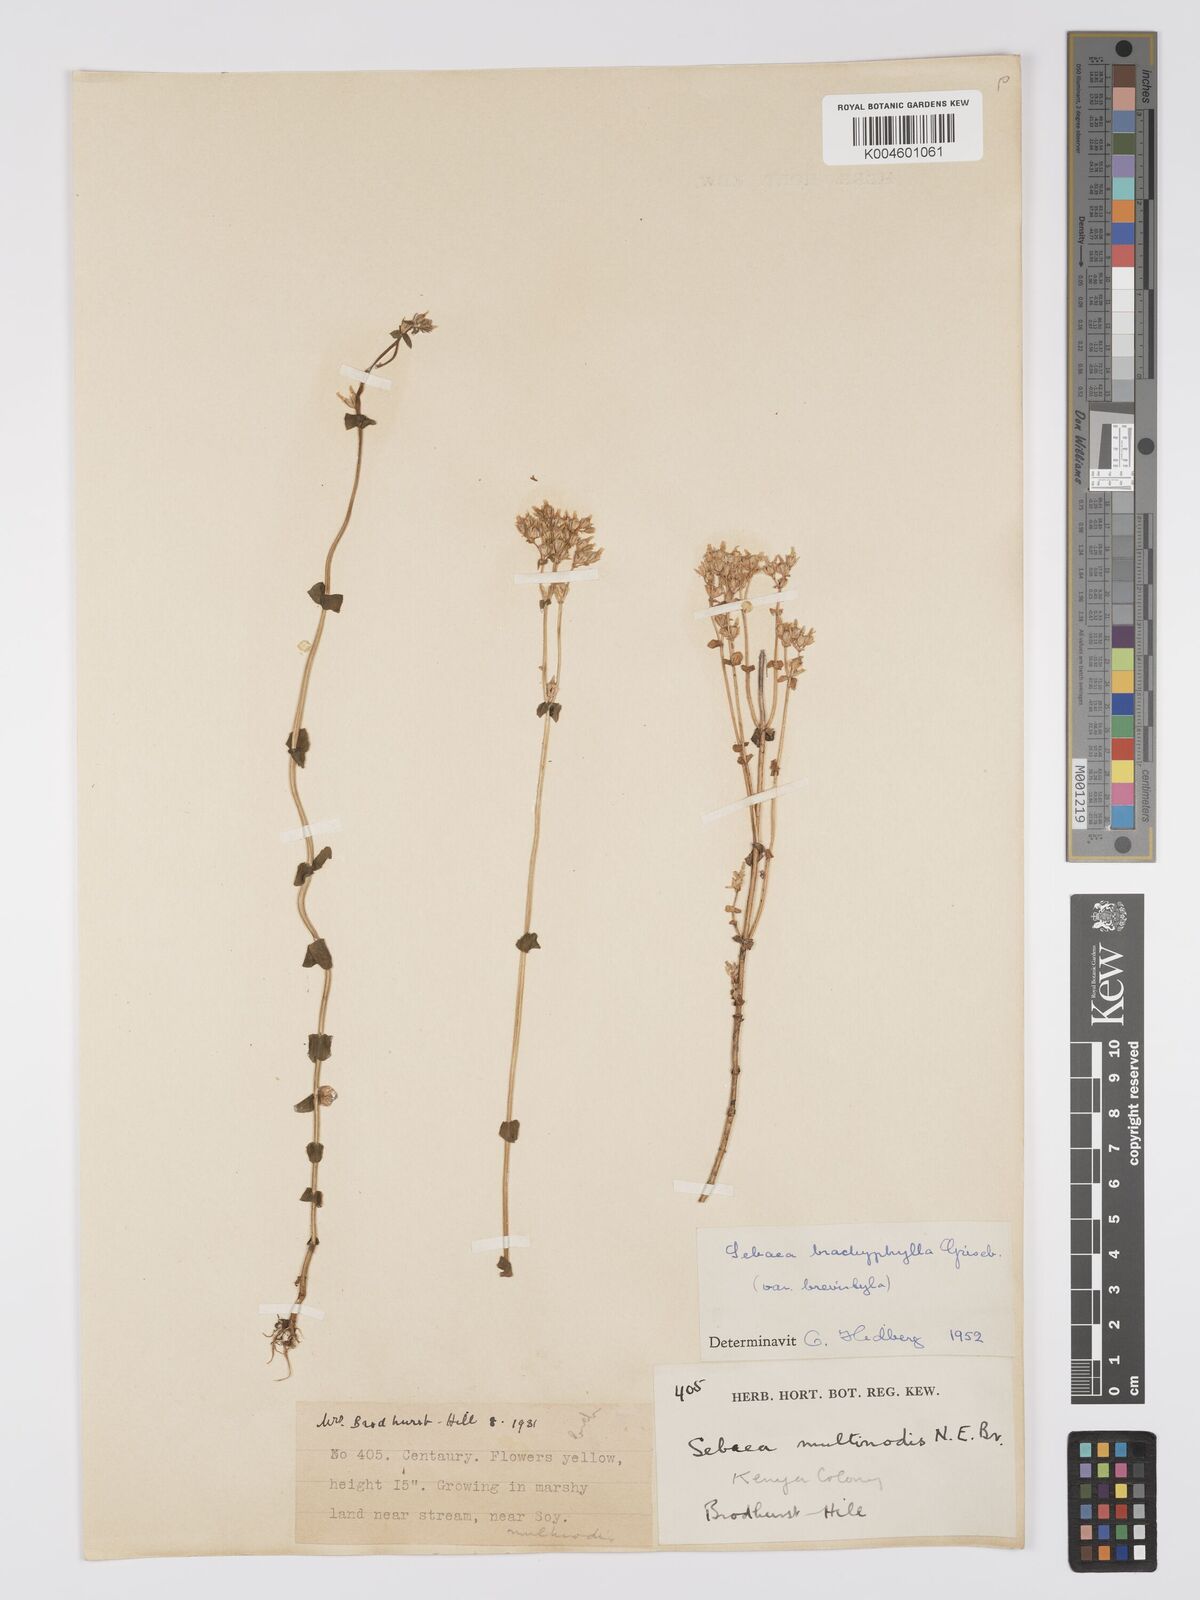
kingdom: Plantae
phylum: Tracheophyta
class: Magnoliopsida
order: Gentianales
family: Gentianaceae
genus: Sebaea
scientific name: Sebaea brachyphylla
